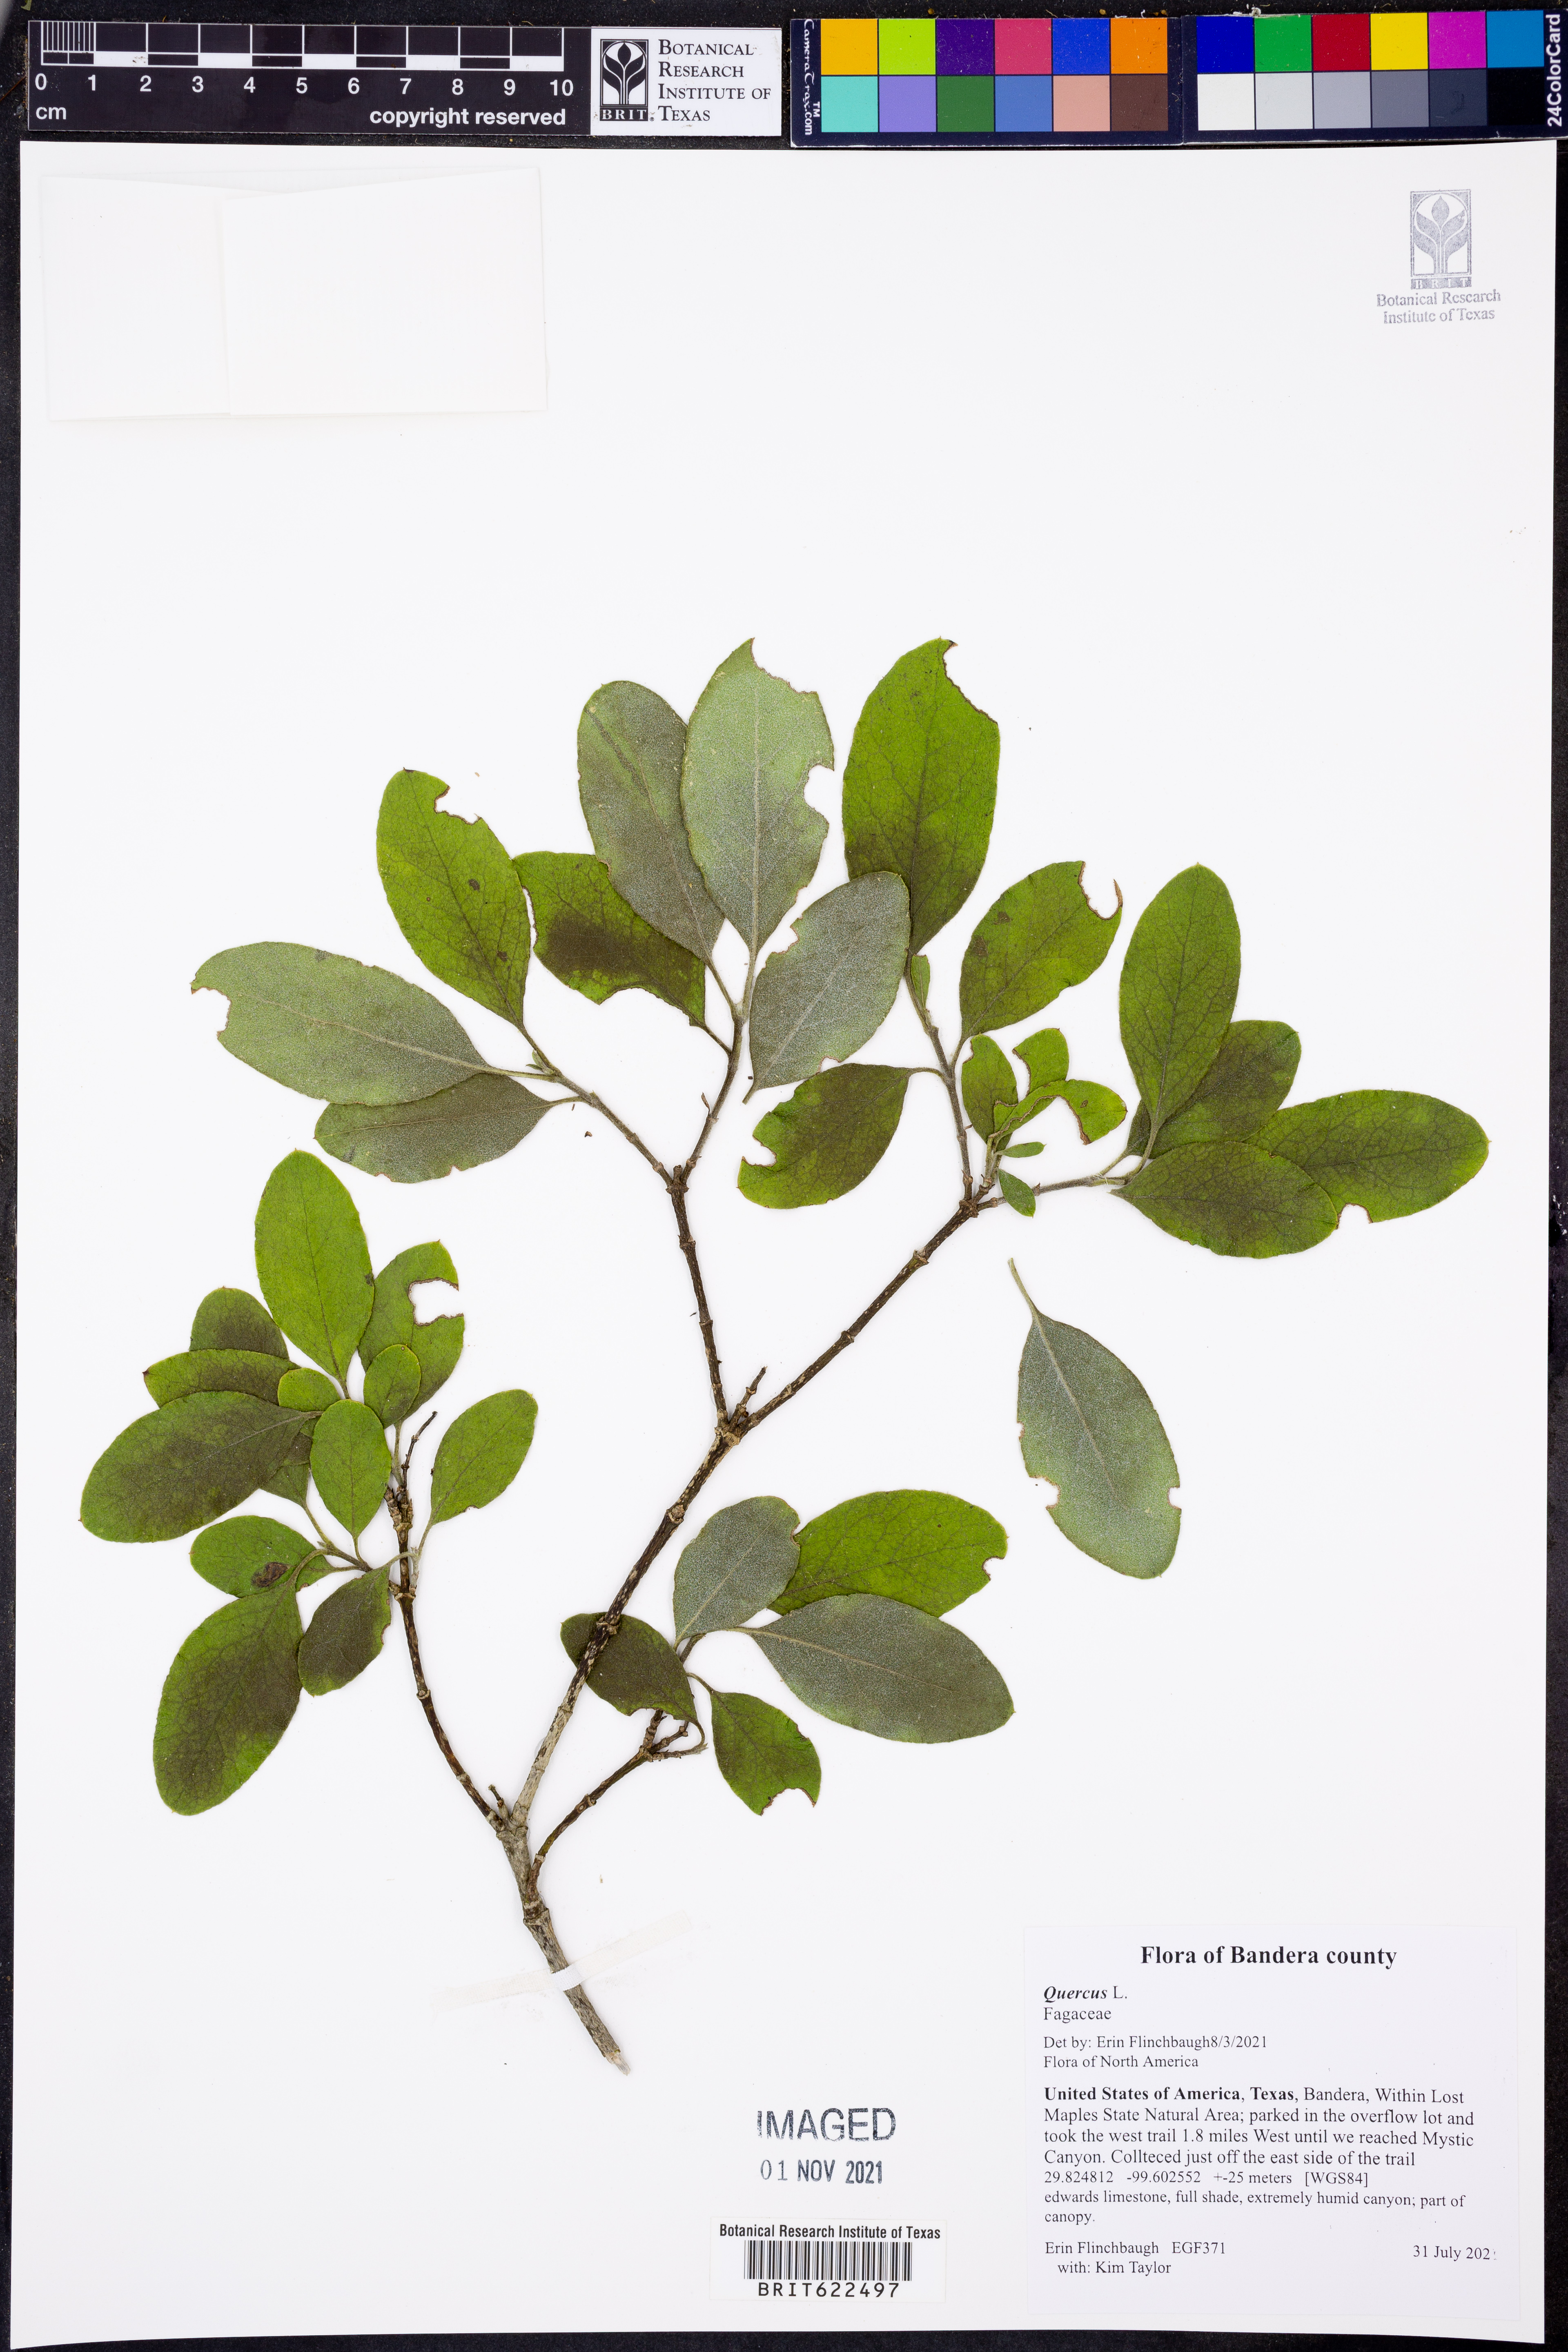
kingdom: Plantae
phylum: Tracheophyta
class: Magnoliopsida
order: Fagales
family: Fagaceae
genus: Quercus
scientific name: Quercus
